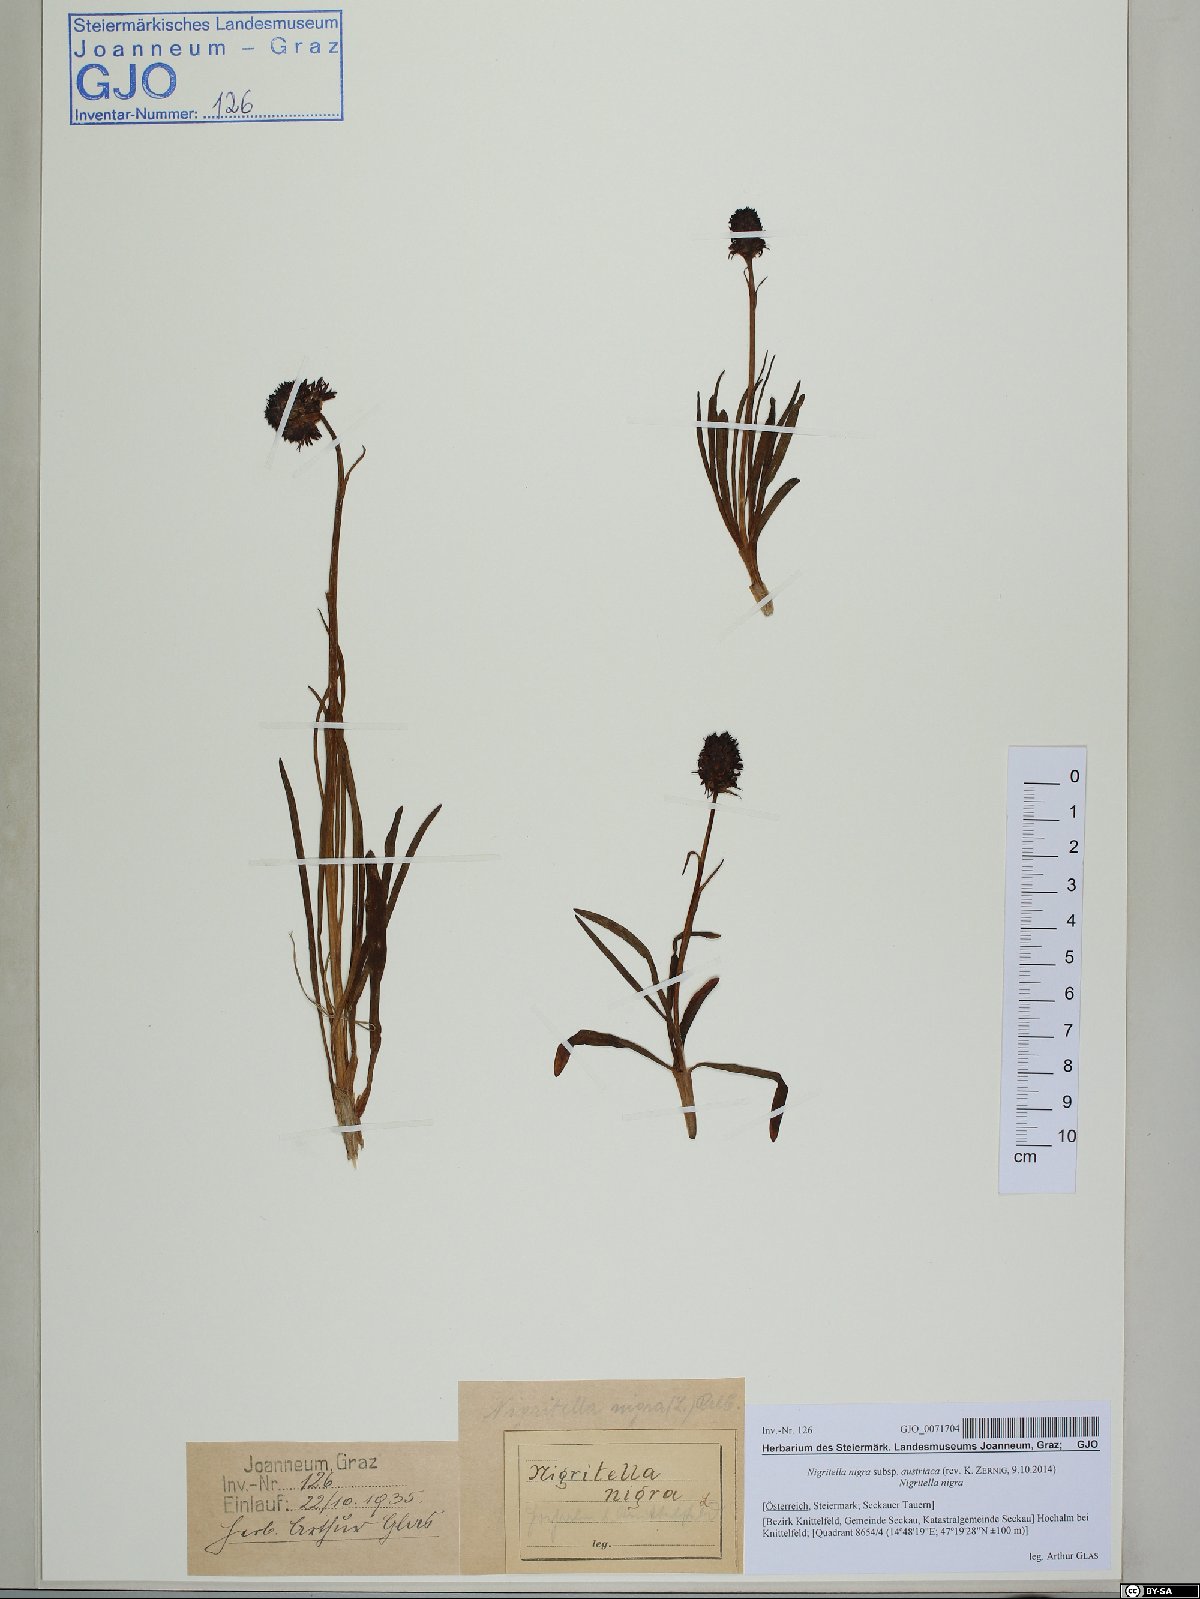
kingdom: Plantae
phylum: Tracheophyta
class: Liliopsida
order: Asparagales
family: Orchidaceae
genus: Gymnadenia
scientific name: Gymnadenia austriaca
